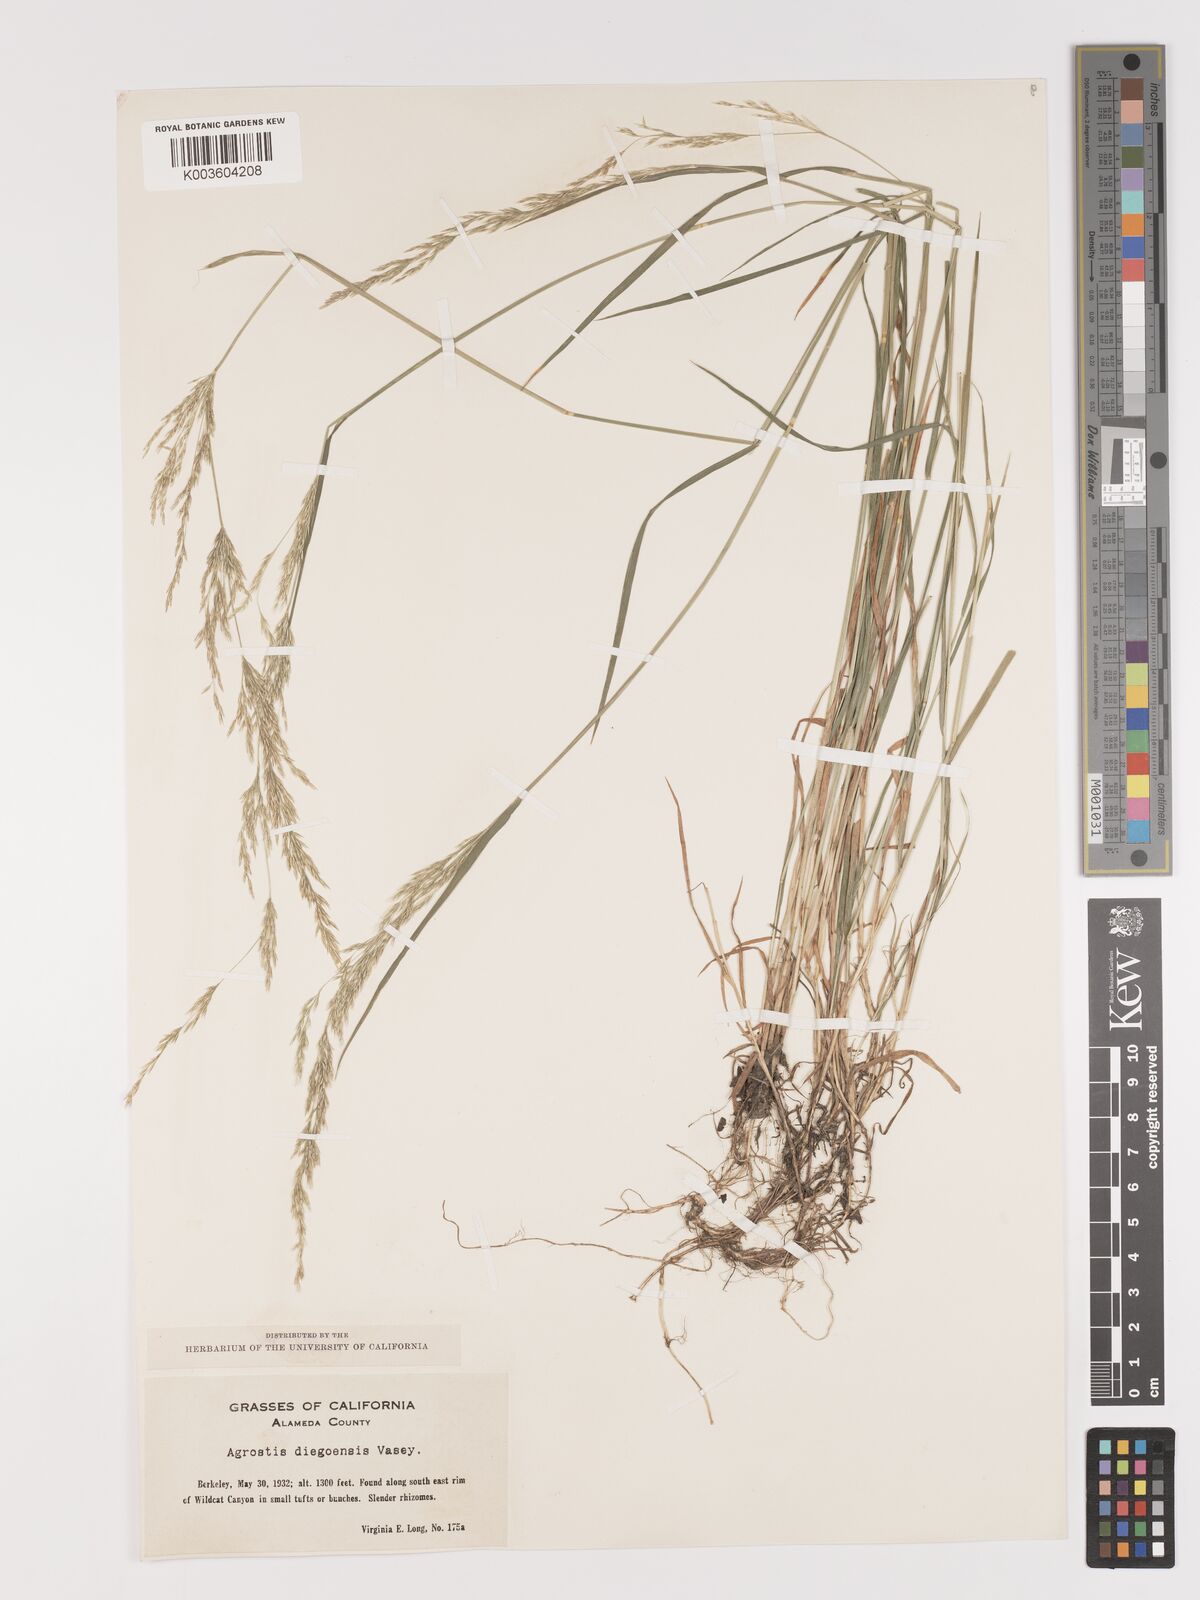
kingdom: Plantae
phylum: Tracheophyta
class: Liliopsida
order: Poales
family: Poaceae
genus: Agrostis
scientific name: Agrostis pallens
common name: Dune bent
